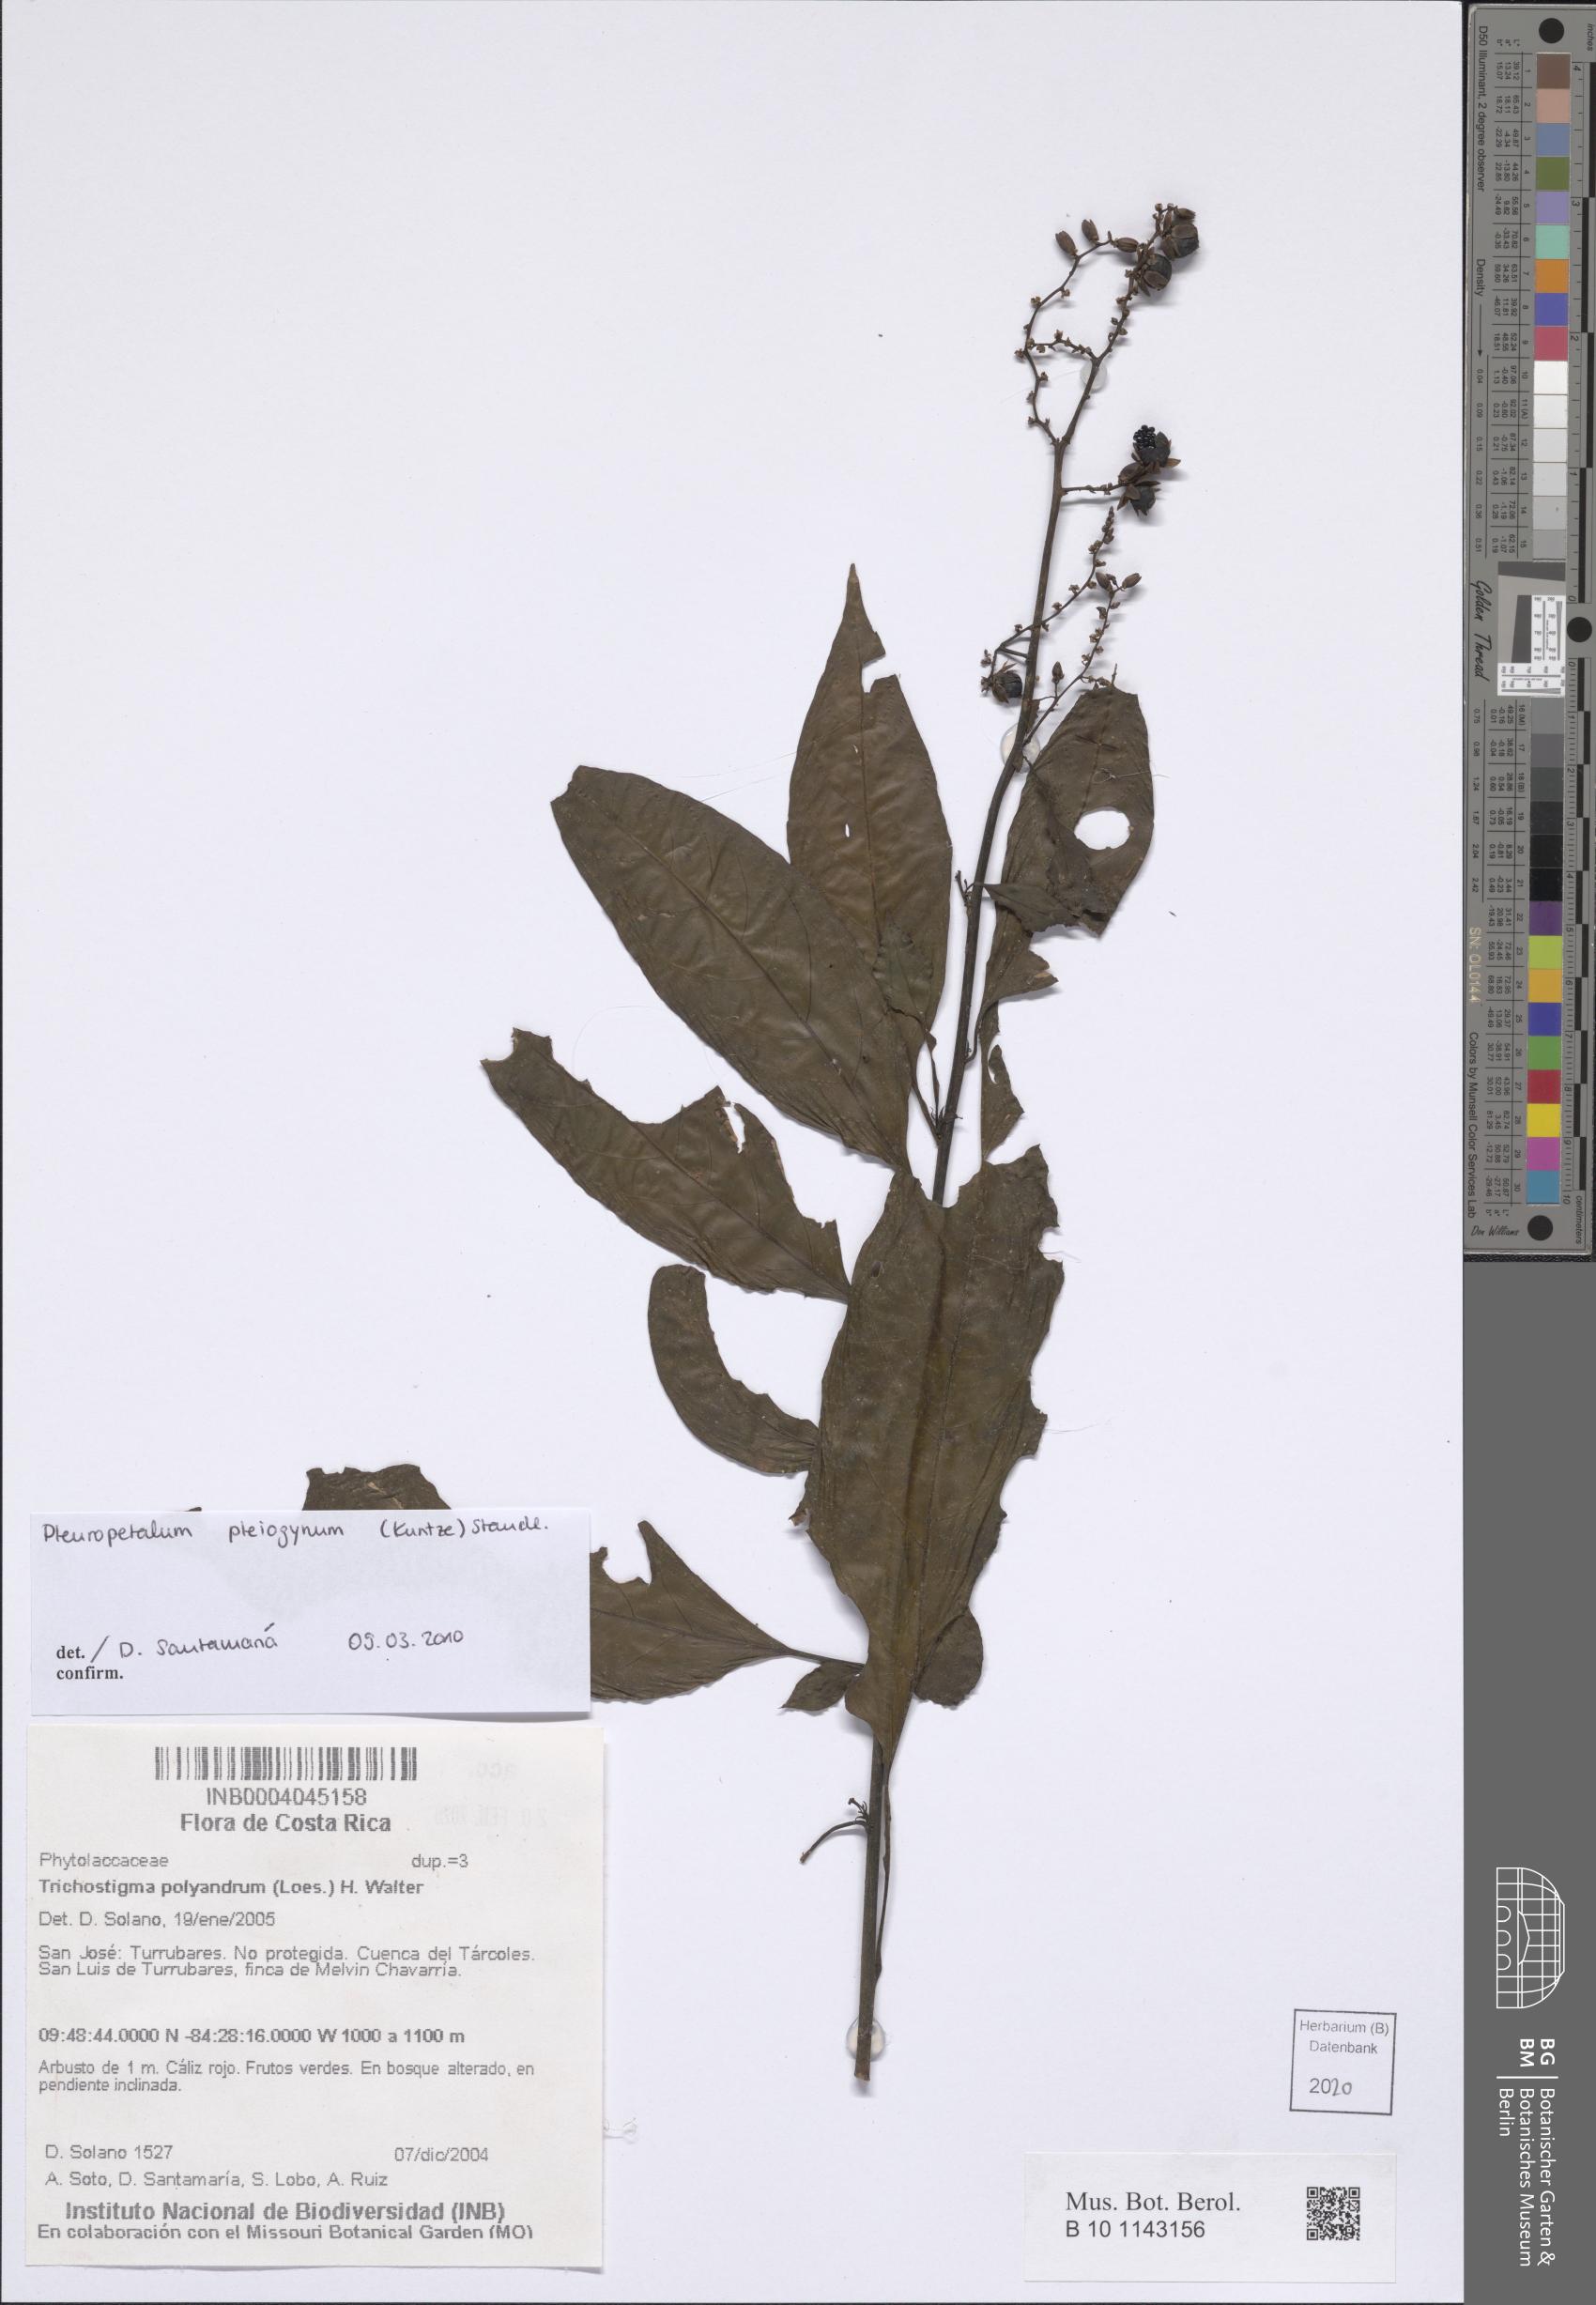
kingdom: Plantae
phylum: Tracheophyta
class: Magnoliopsida
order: Caryophyllales
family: Amaranthaceae
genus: Pleuropetalum
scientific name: Pleuropetalum pleiogynum
